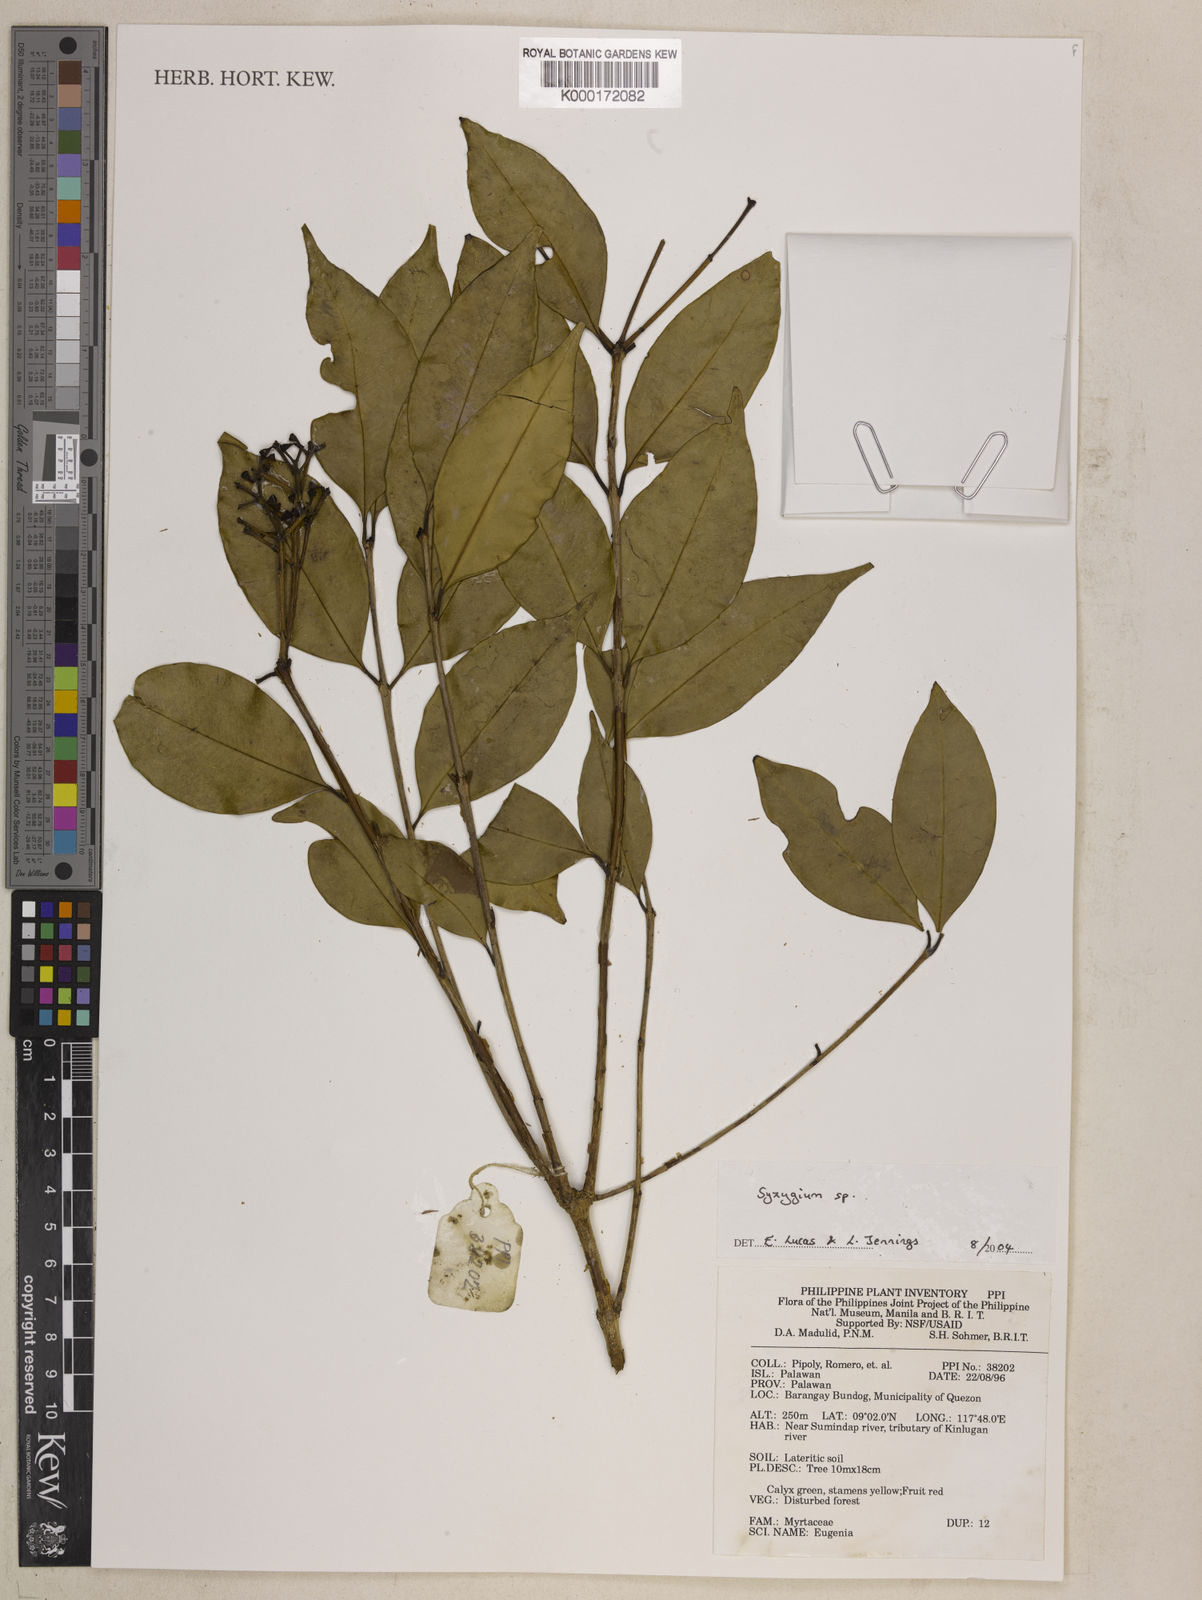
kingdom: Plantae
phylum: Tracheophyta
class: Magnoliopsida
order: Myrtales
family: Myrtaceae
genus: Syzygium
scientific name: Syzygium
